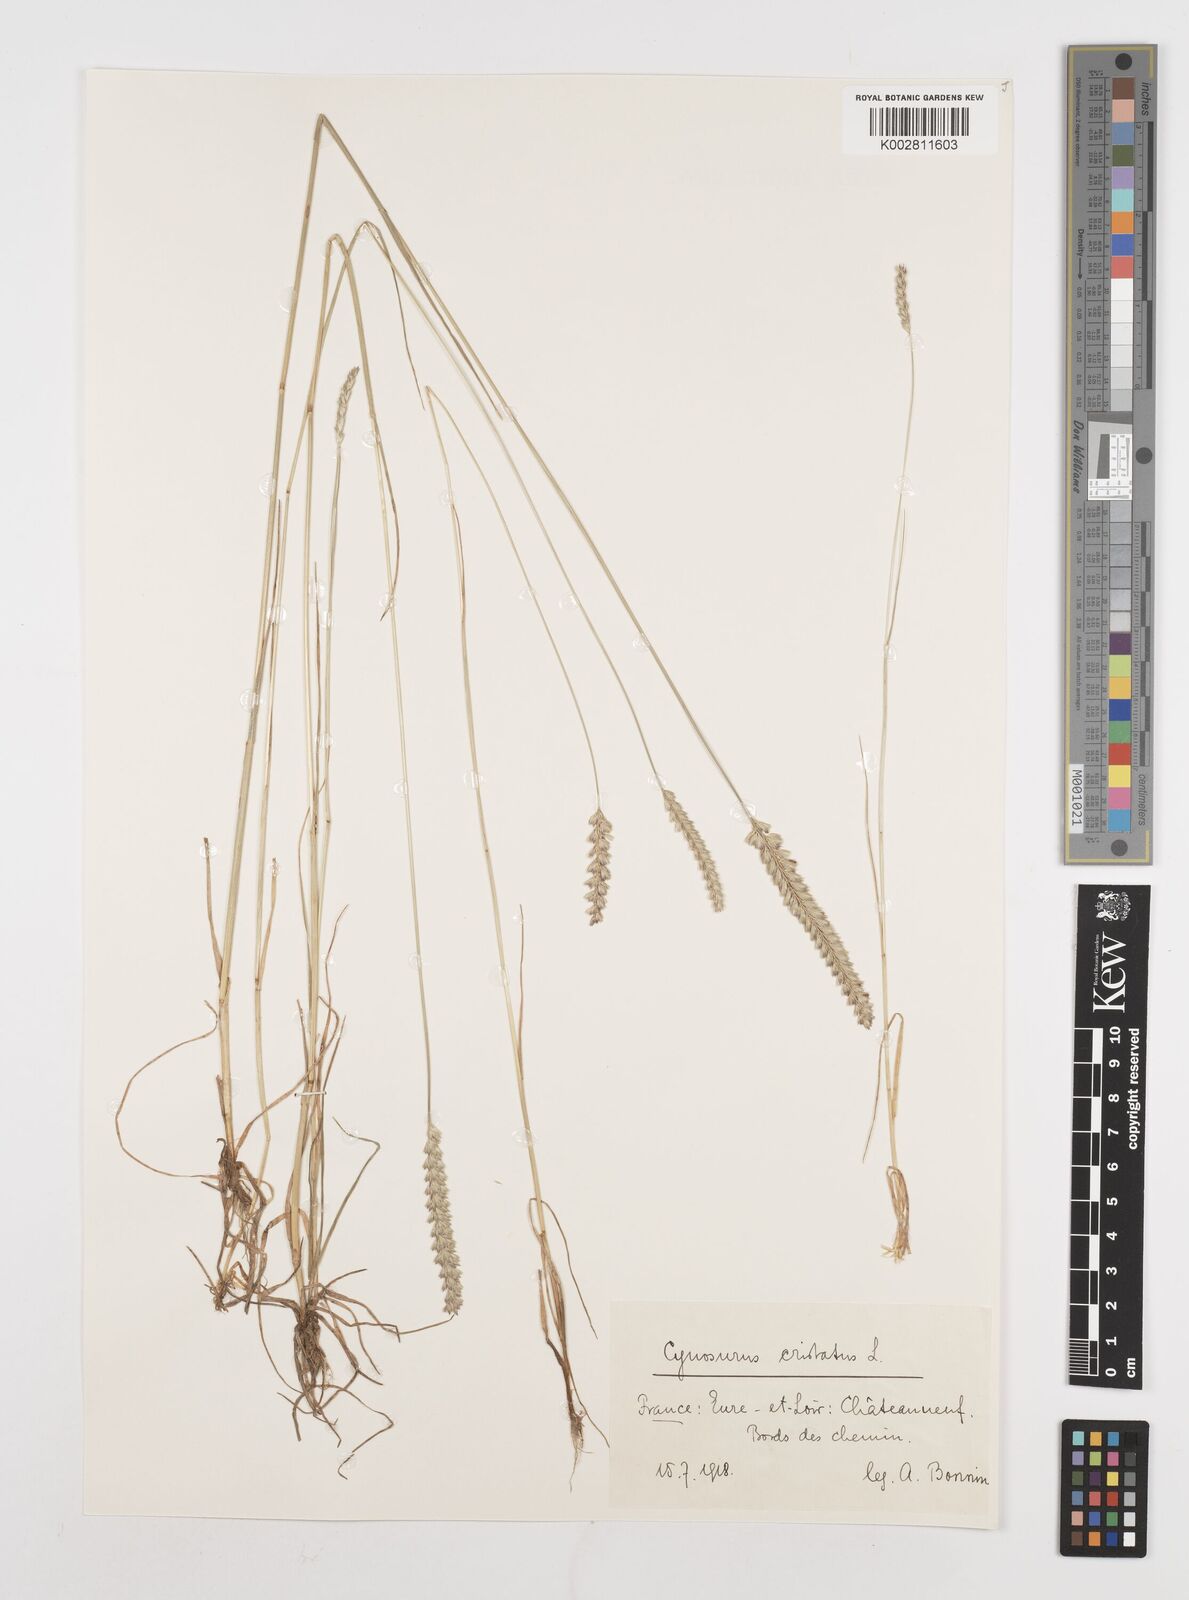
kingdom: Plantae
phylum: Tracheophyta
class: Liliopsida
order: Poales
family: Poaceae
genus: Cynosurus
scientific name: Cynosurus cristatus
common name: Crested dog's-tail
